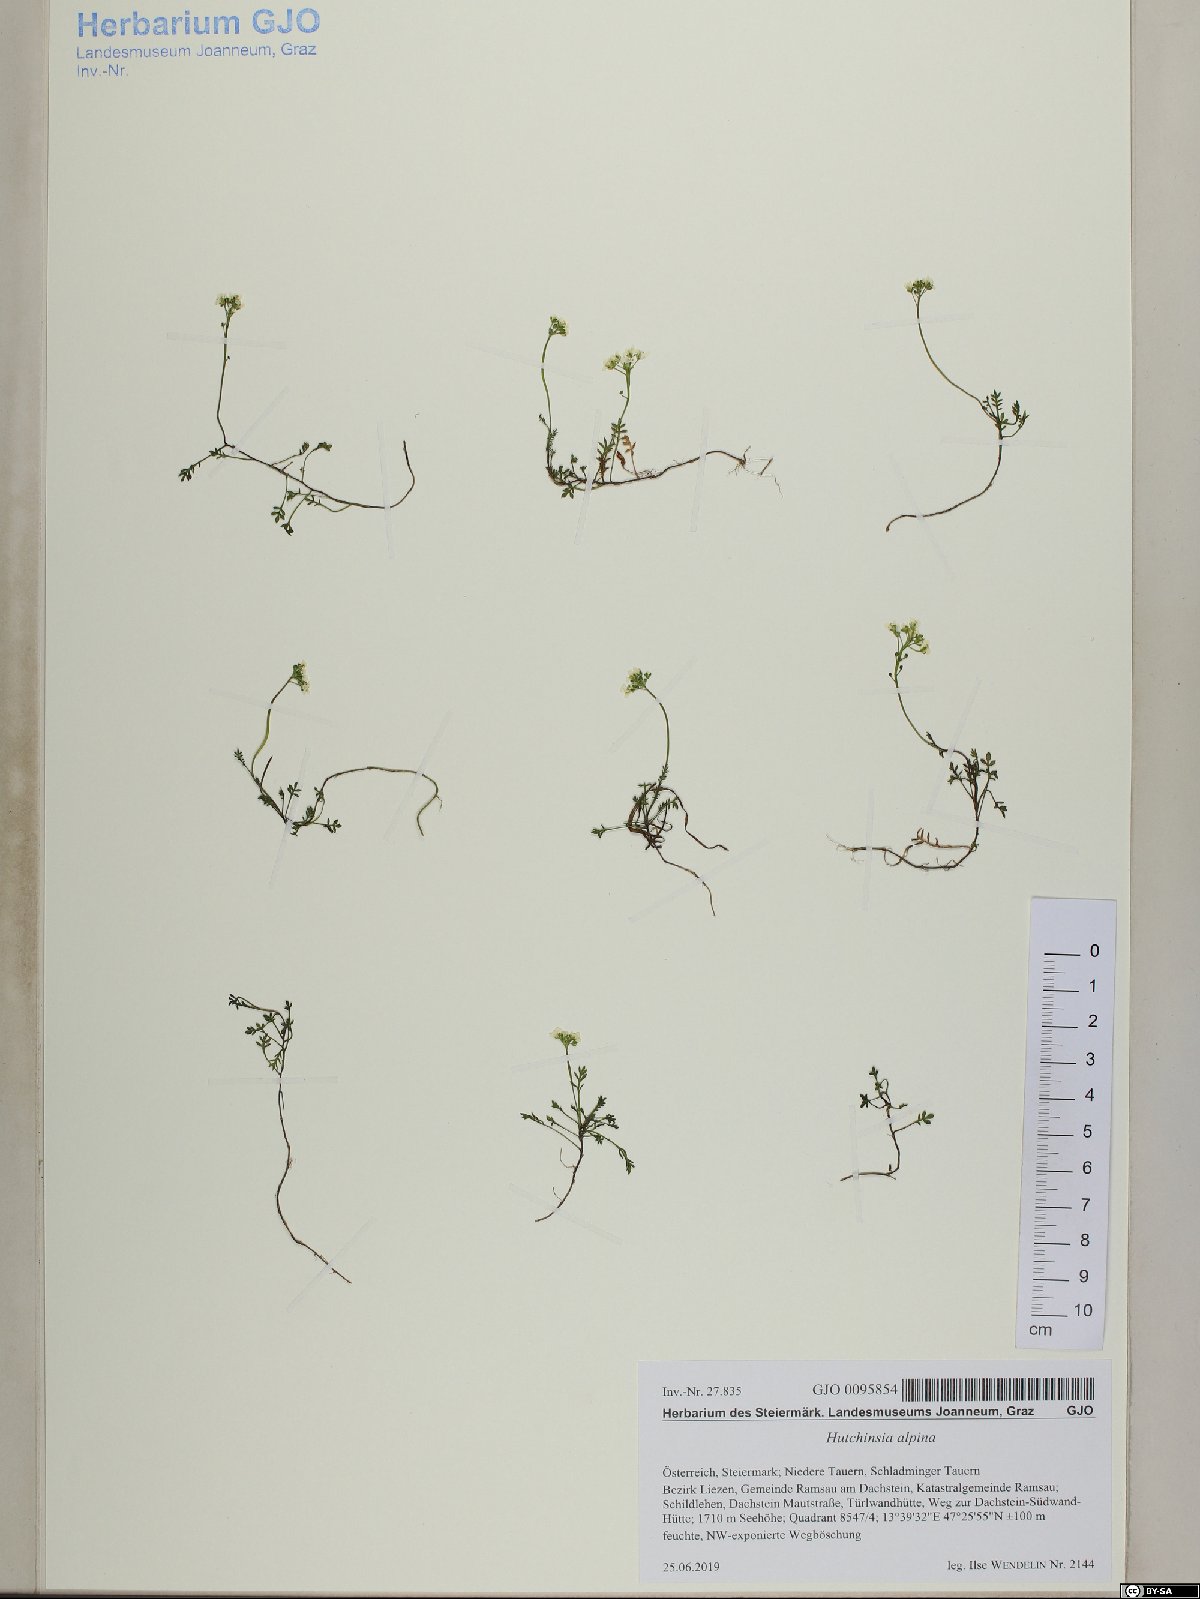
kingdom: Plantae
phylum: Tracheophyta
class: Magnoliopsida
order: Brassicales
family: Brassicaceae
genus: Hornungia
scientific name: Hornungia alpina
